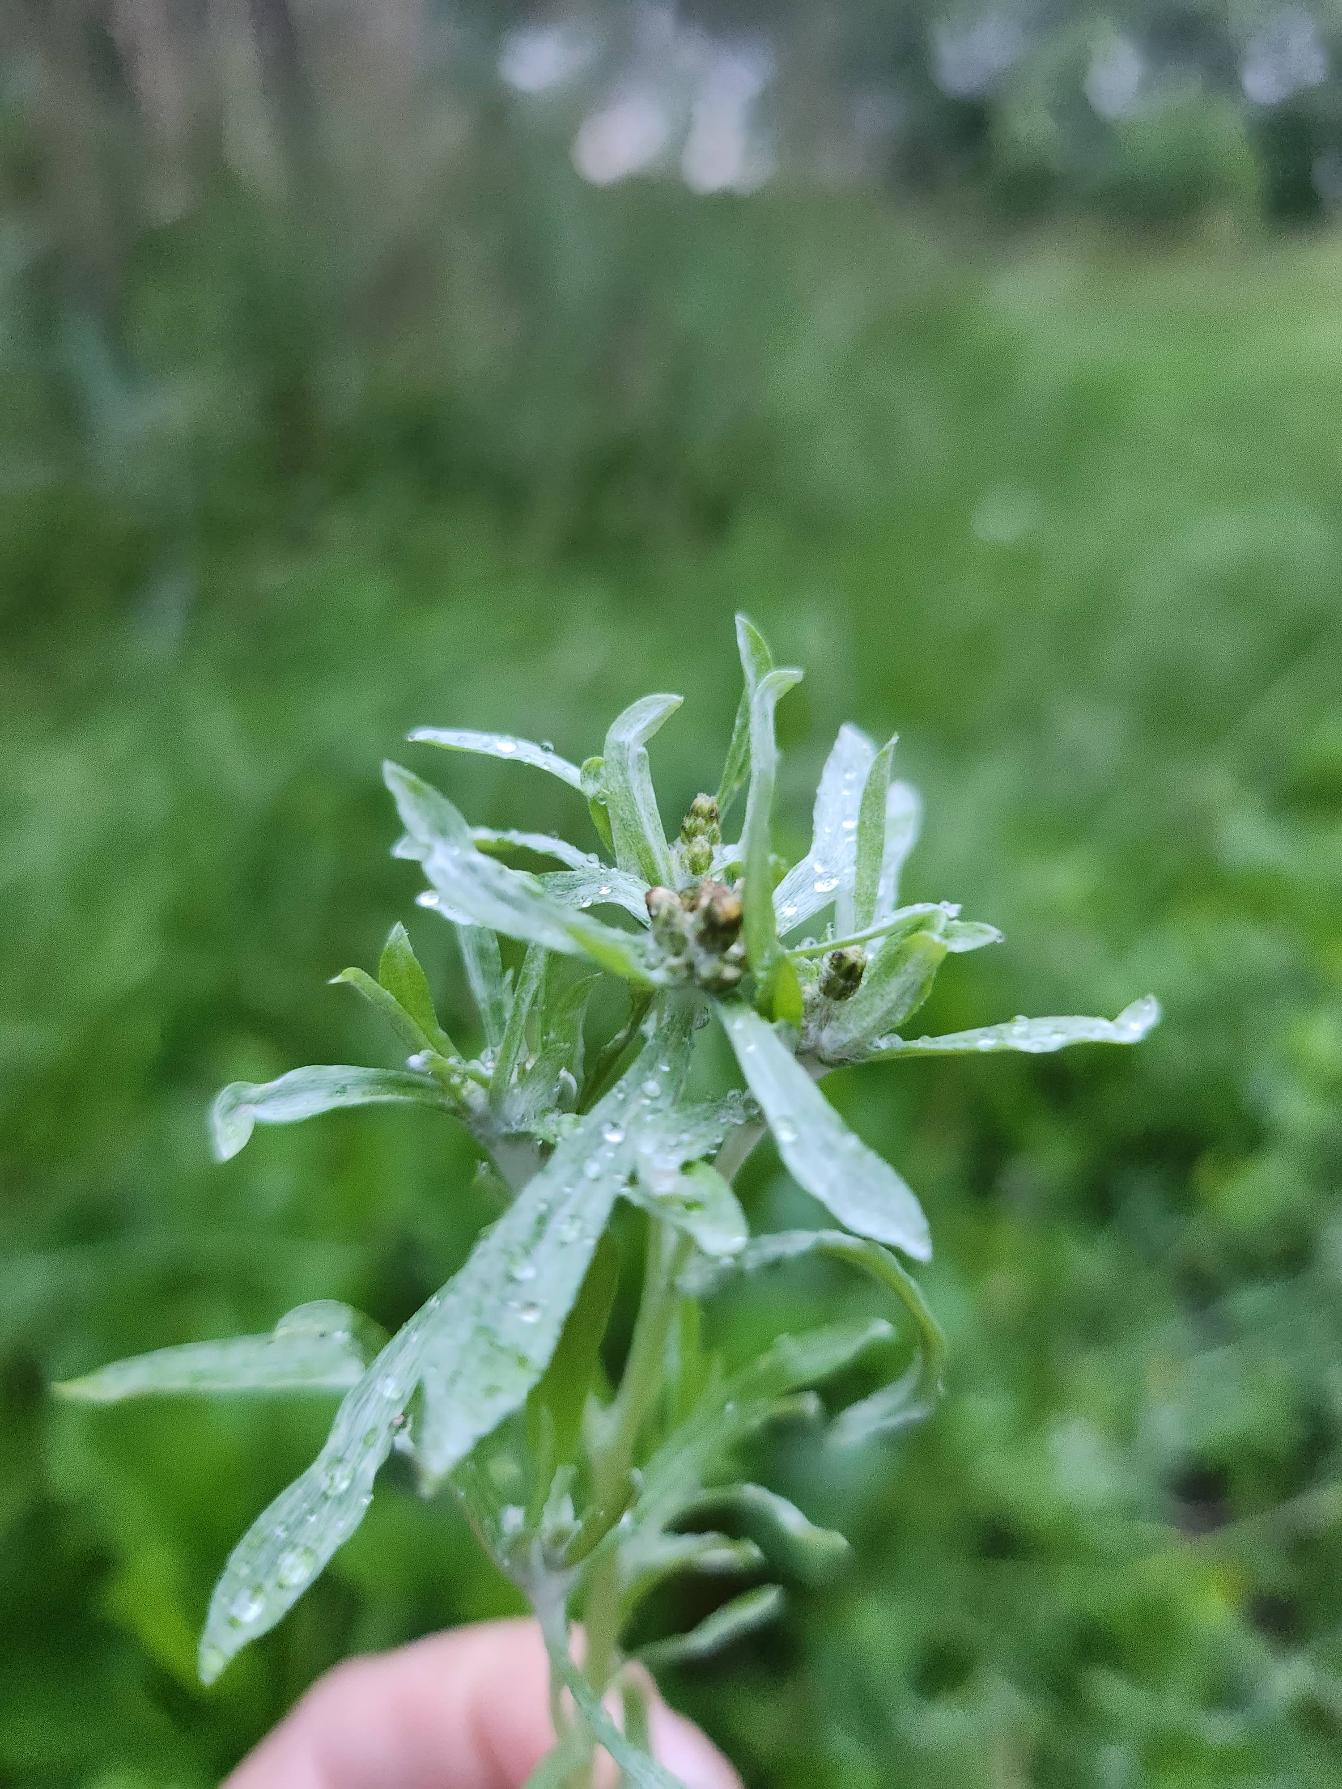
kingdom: Plantae
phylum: Tracheophyta
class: Magnoliopsida
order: Asterales
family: Asteraceae
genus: Gnaphalium
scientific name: Gnaphalium uliginosum
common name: Sump-evighedsblomst
